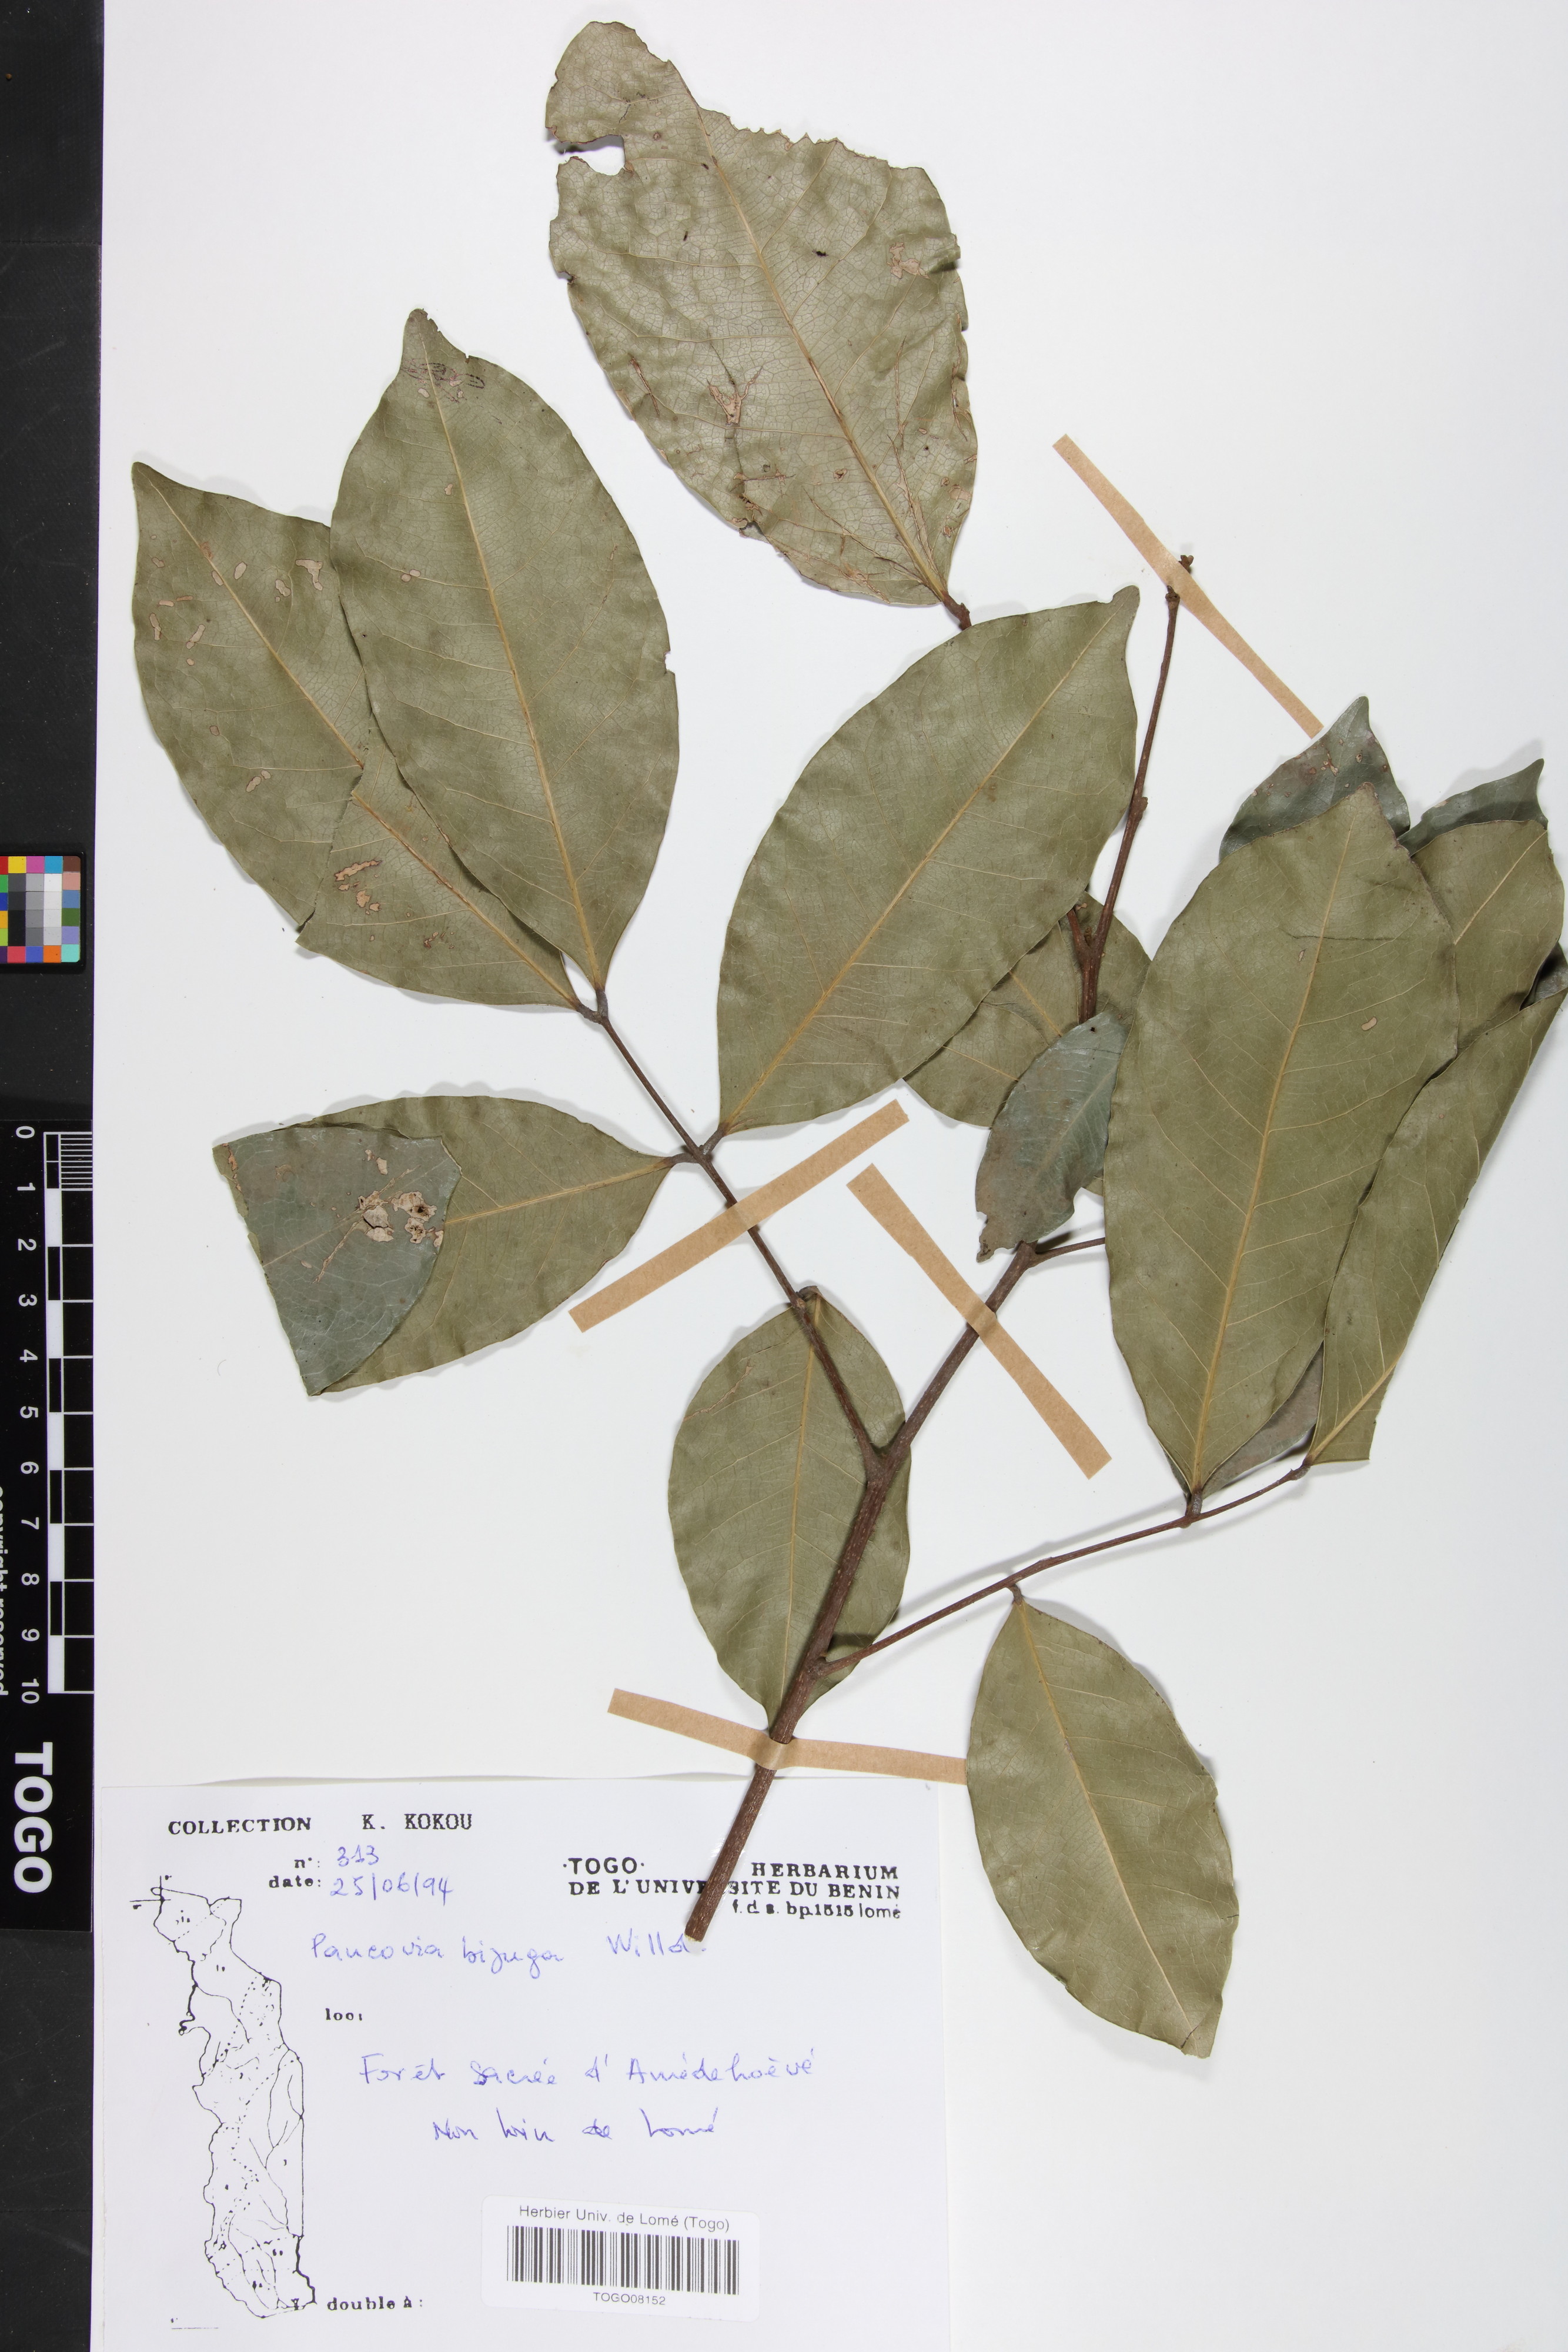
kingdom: Plantae
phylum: Tracheophyta
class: Magnoliopsida
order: Sapindales
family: Sapindaceae
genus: Pancovia
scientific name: Pancovia bijuga
